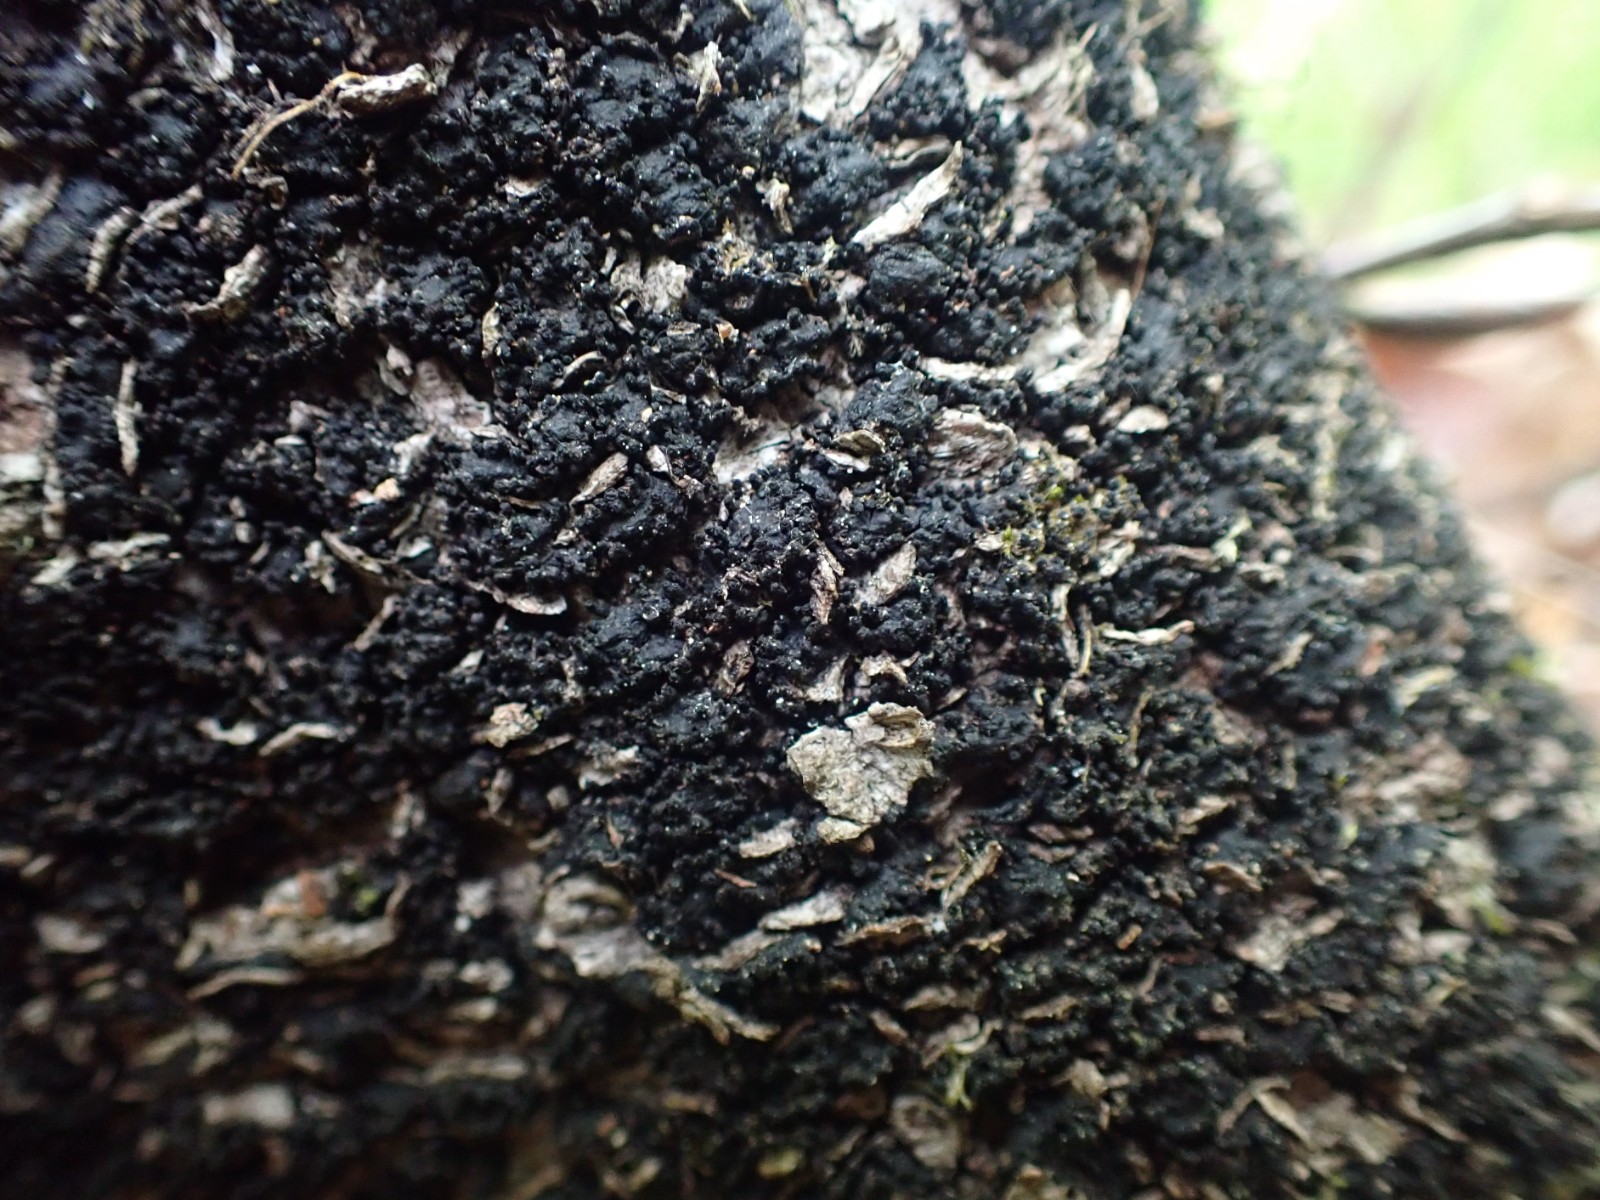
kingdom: Fungi
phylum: Ascomycota
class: Sordariomycetes
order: Xylariales
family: Melogrammataceae
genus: Melogramma
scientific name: Melogramma spiniferum
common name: bøgefod-kulhals
